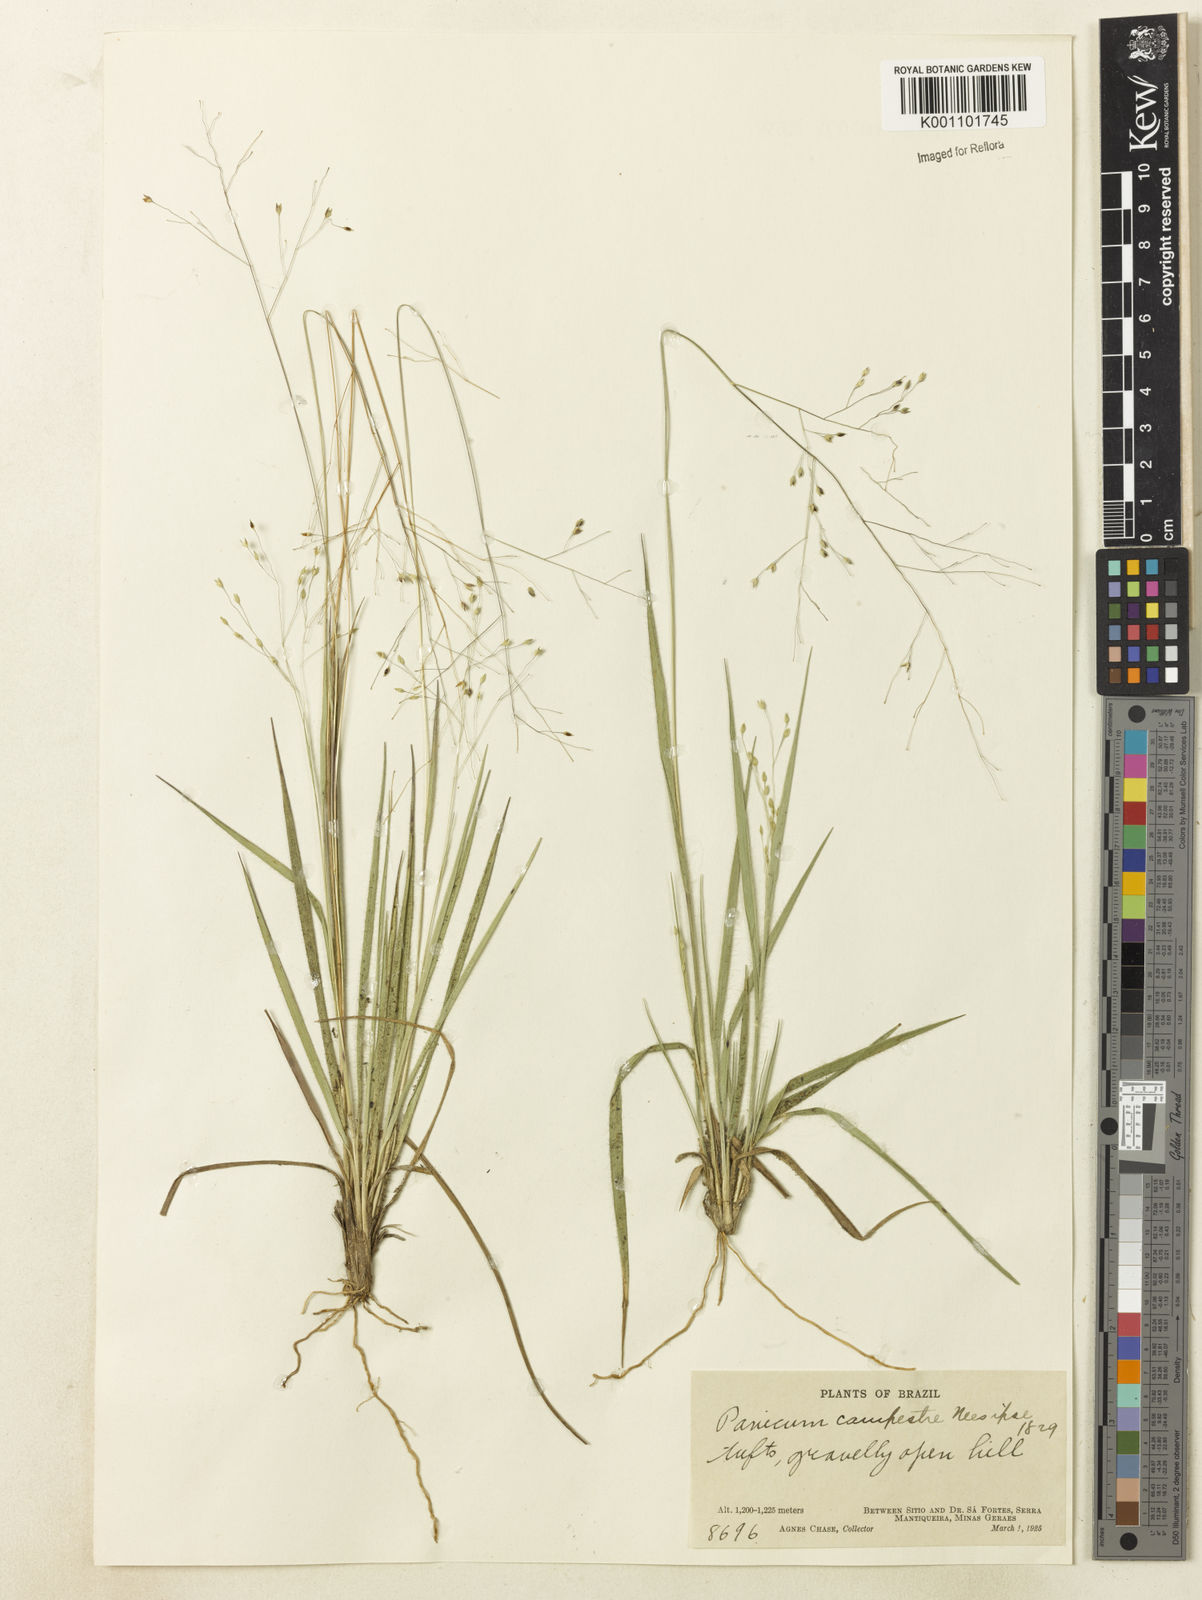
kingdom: Plantae
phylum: Tracheophyta
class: Liliopsida
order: Poales
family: Poaceae
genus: Panicum
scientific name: Panicum peladoense
